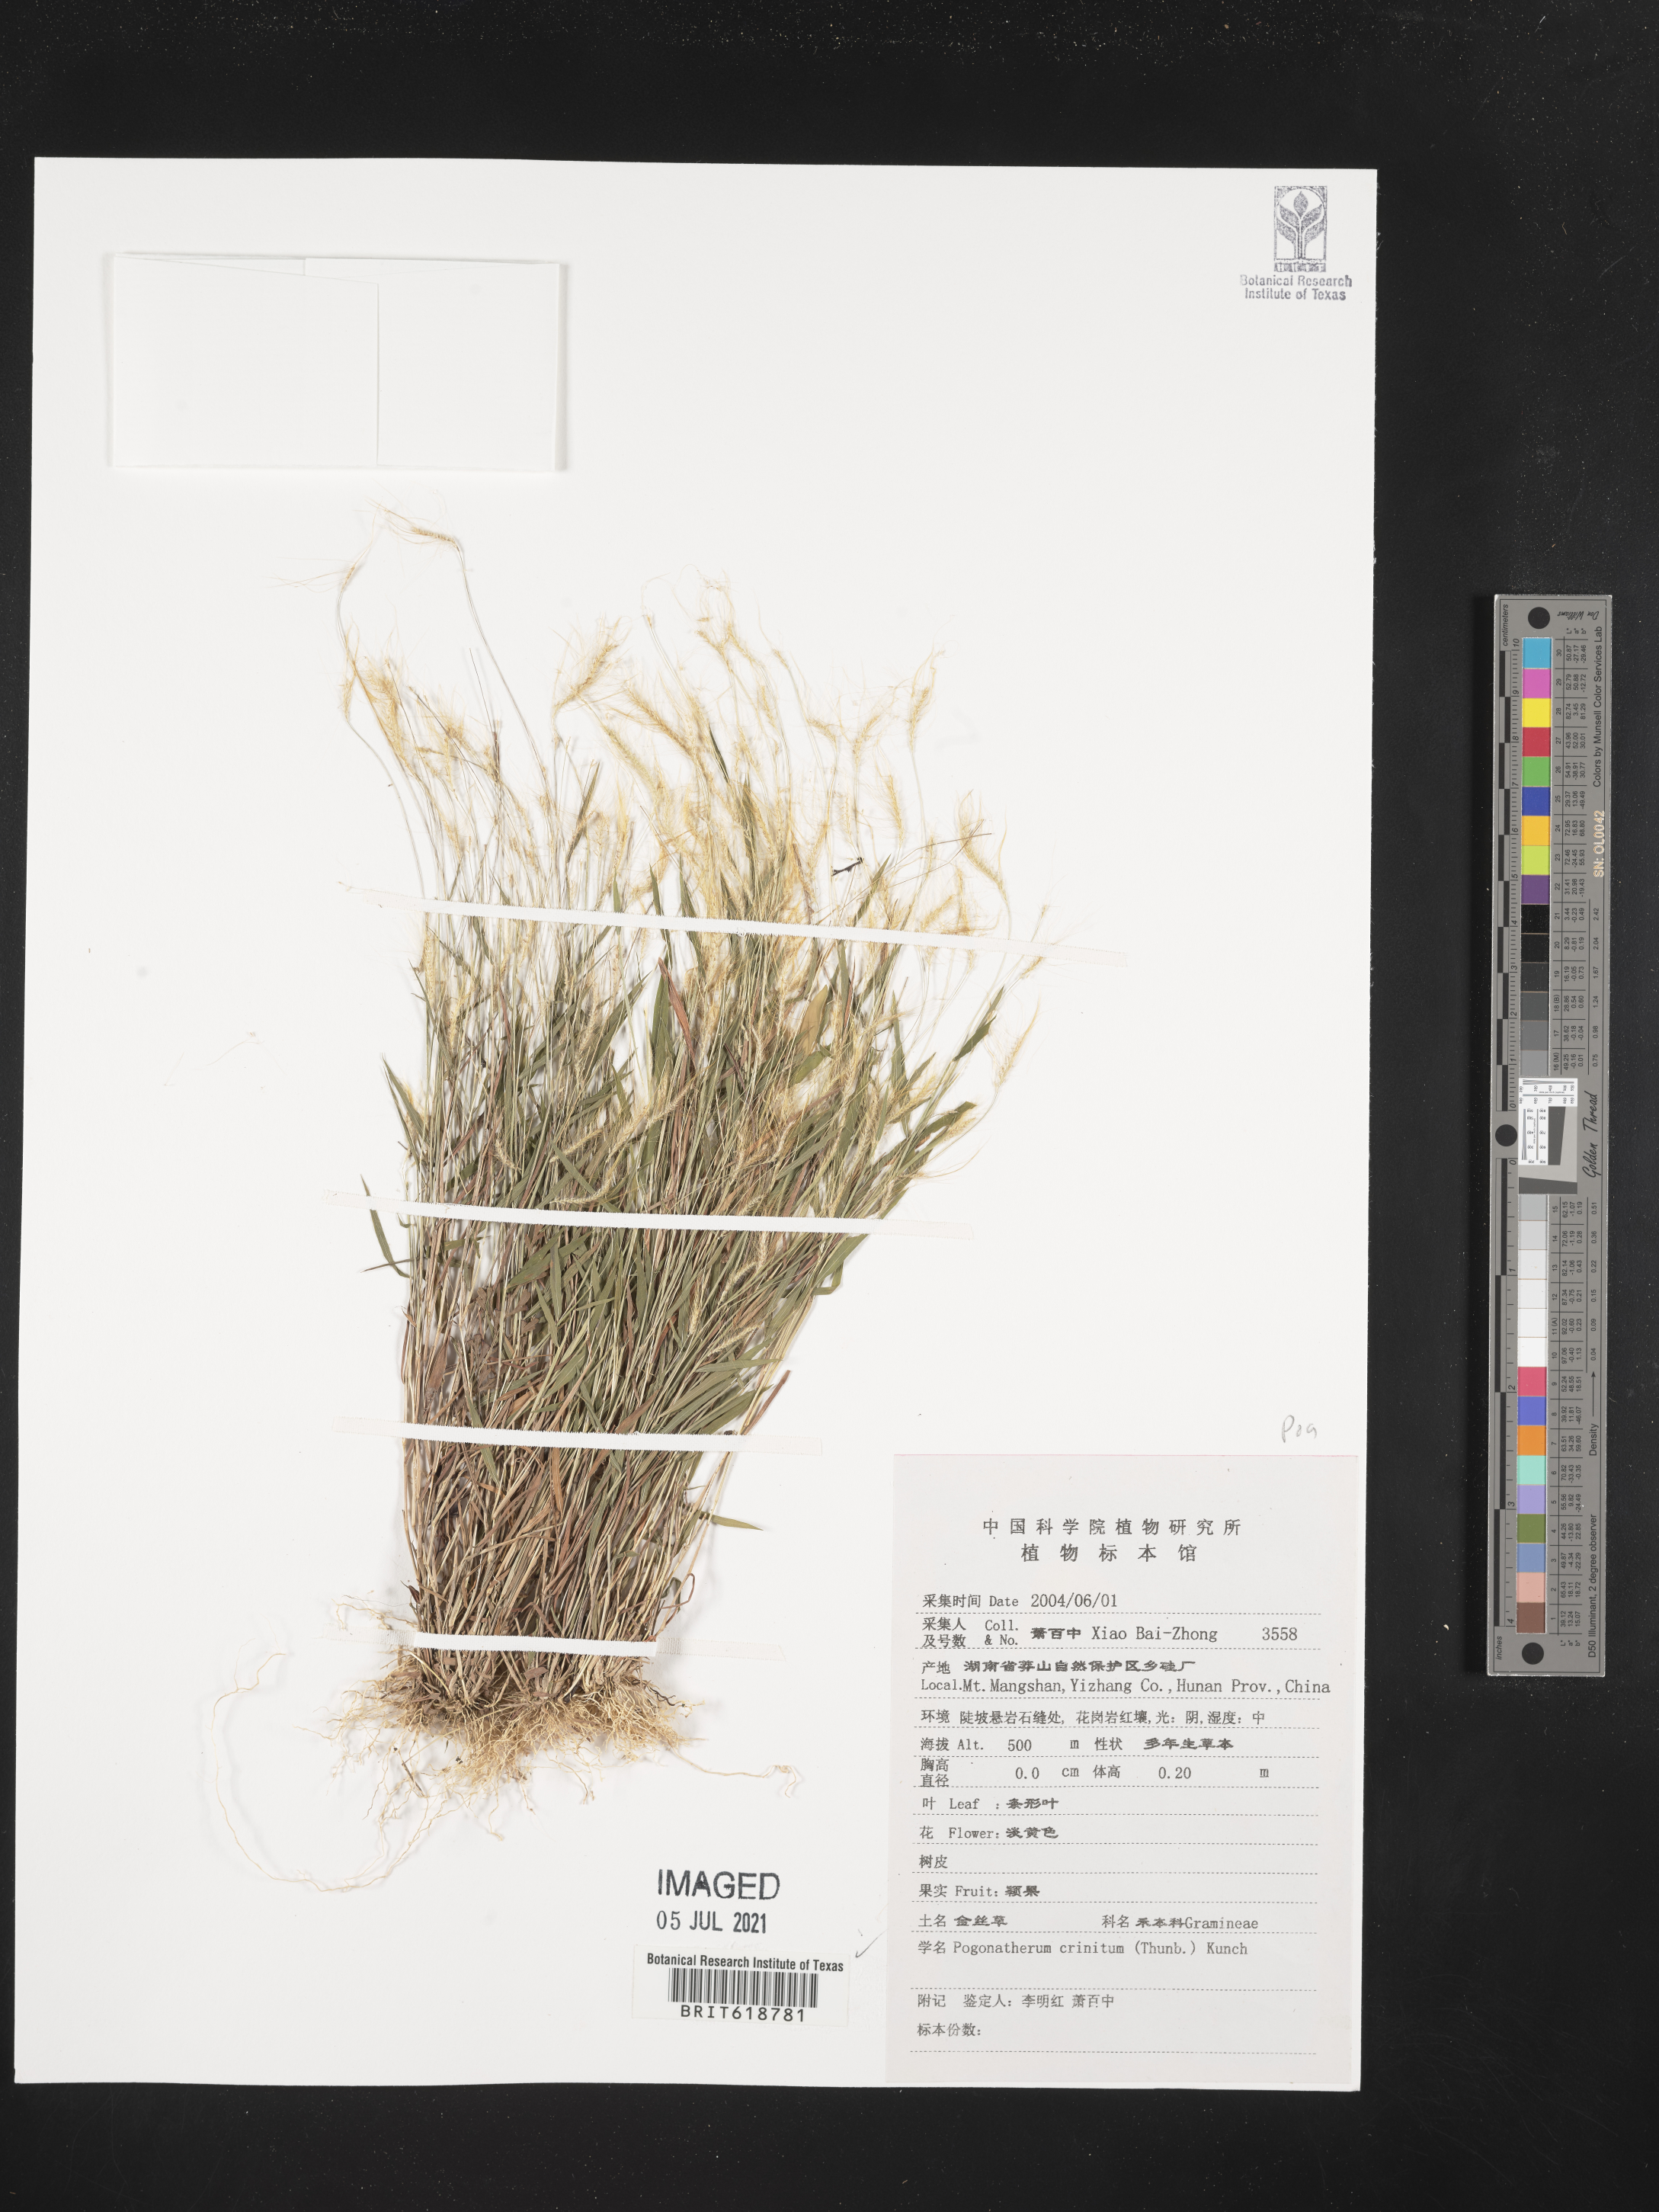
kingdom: Plantae
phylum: Tracheophyta
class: Liliopsida
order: Poales
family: Poaceae
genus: Pogonatherum
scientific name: Pogonatherum crinitum
